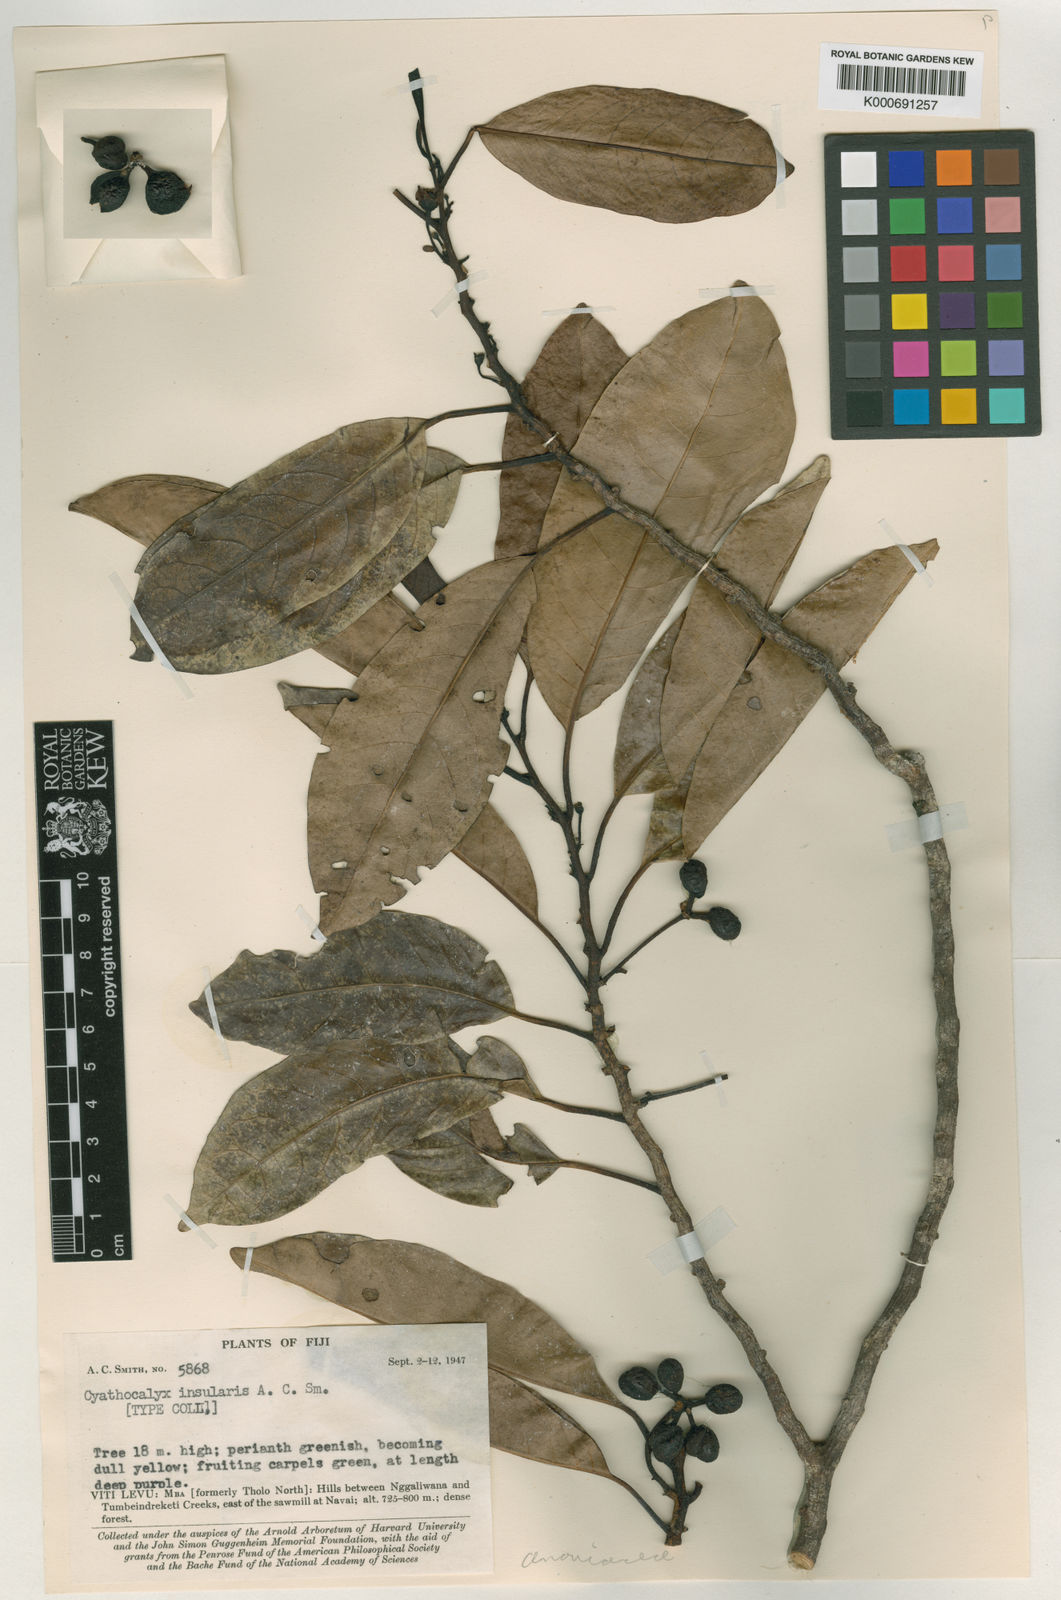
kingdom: Plantae
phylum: Tracheophyta
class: Magnoliopsida
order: Magnoliales
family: Annonaceae
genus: Drepananthus
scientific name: Drepananthus vitiensis
